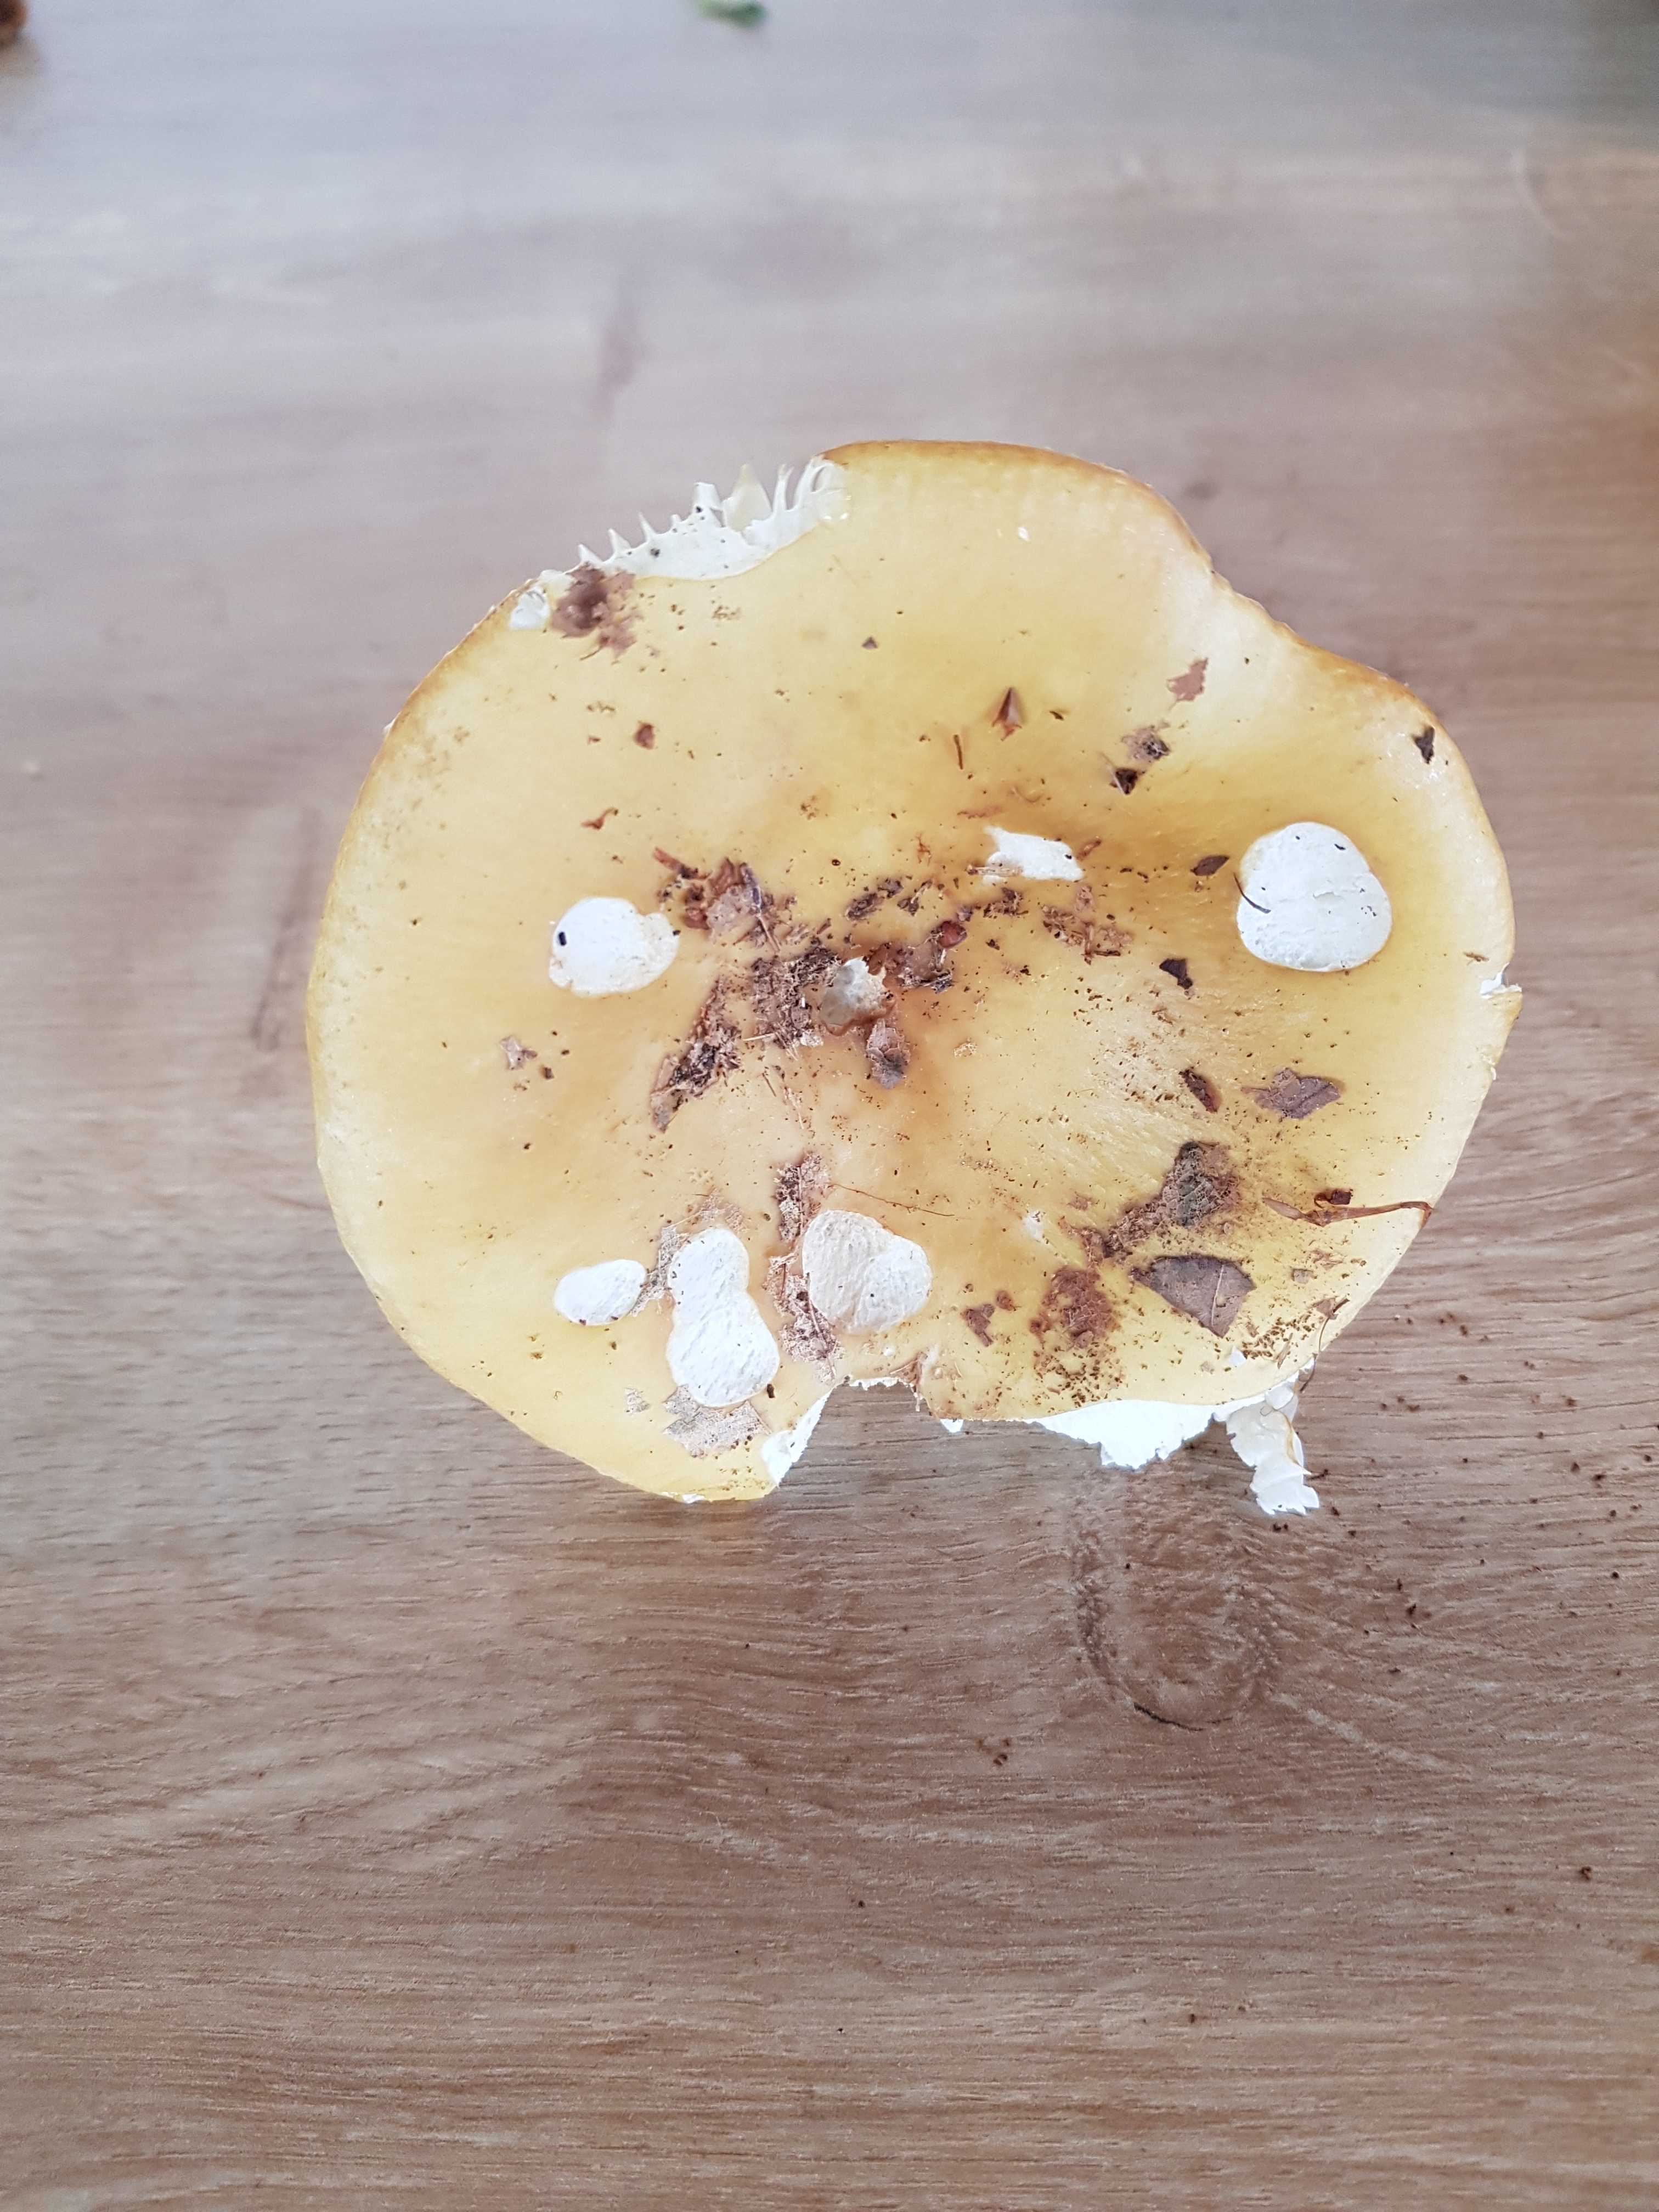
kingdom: Fungi
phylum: Basidiomycota
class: Agaricomycetes
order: Russulales
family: Russulaceae
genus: Russula
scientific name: Russula ochroleuca
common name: okkergul skørhat
